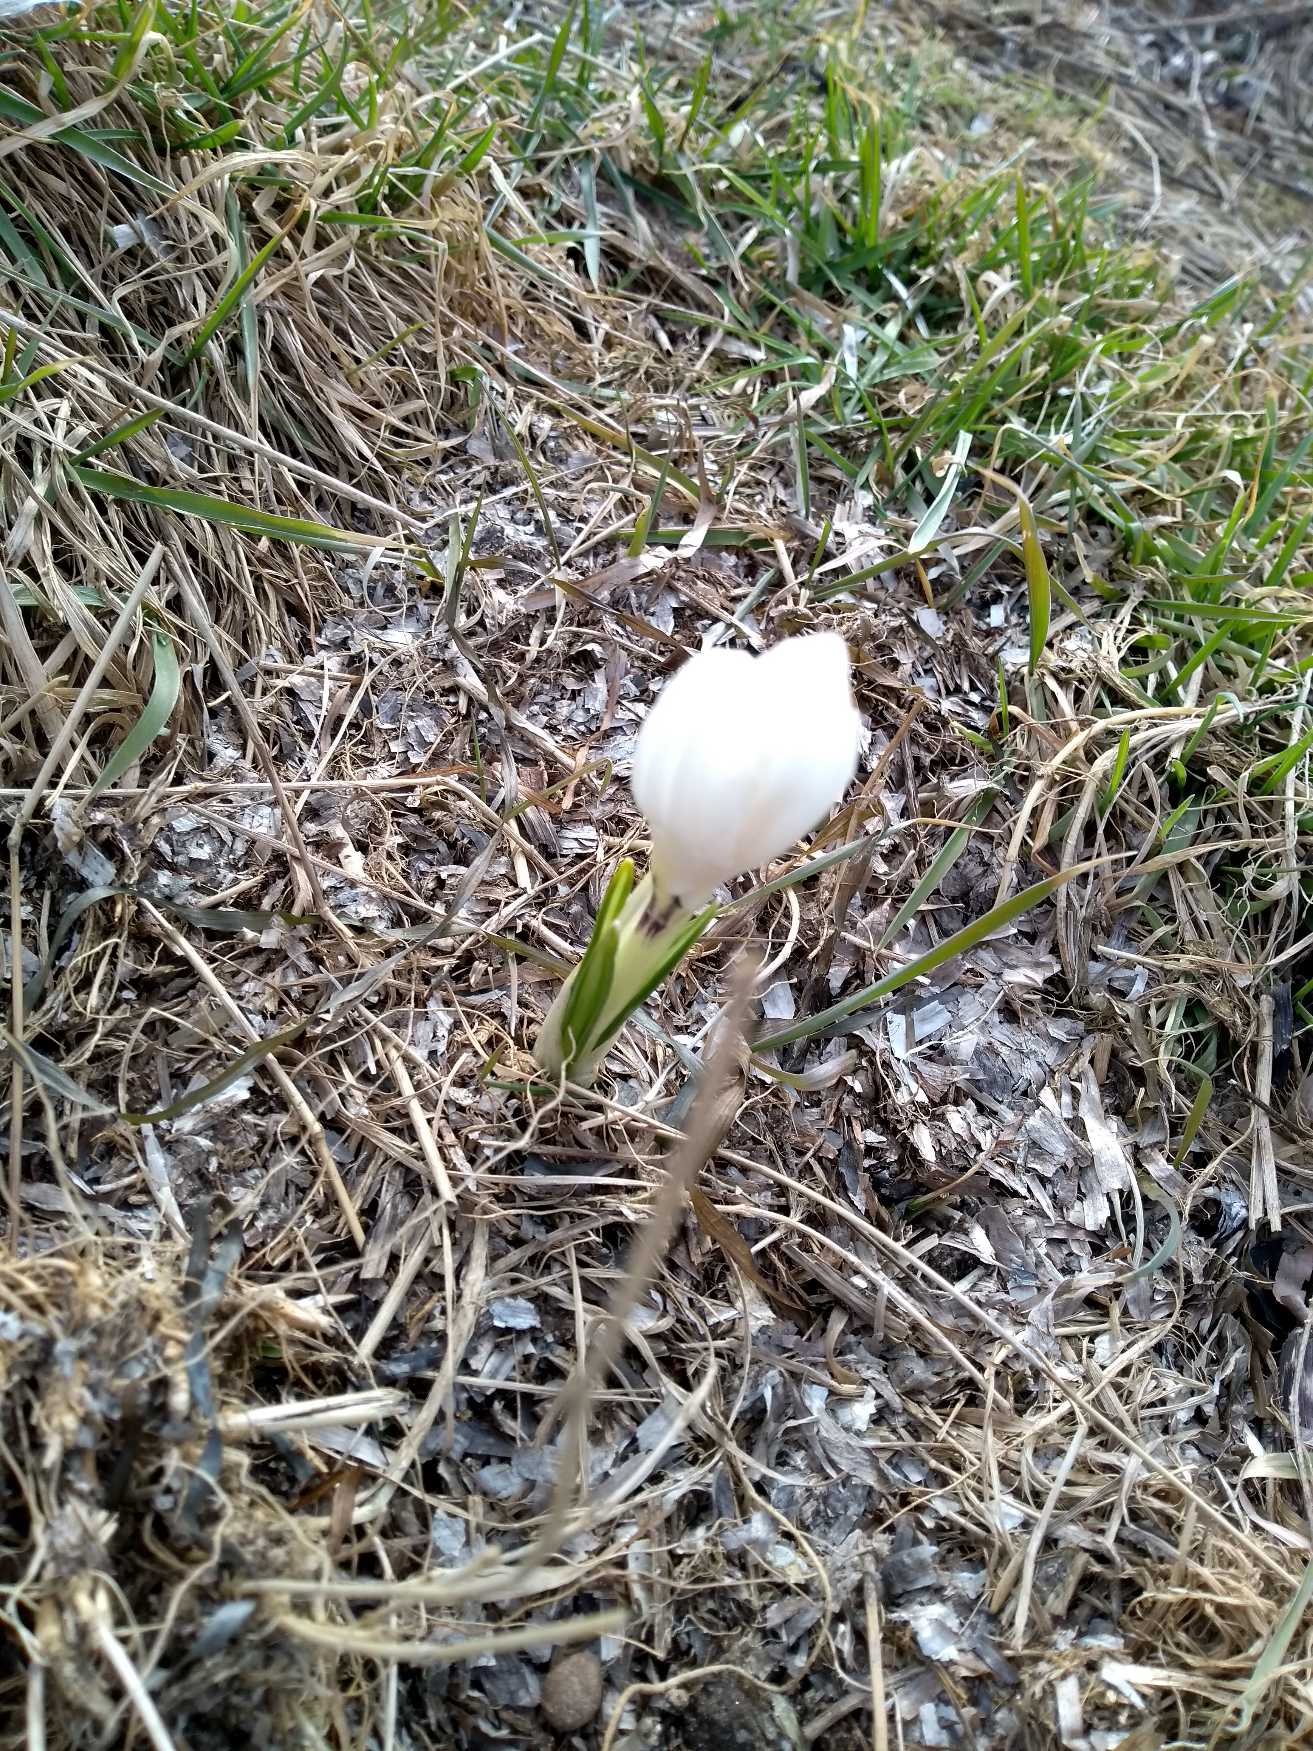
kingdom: Plantae
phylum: Tracheophyta
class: Liliopsida
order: Asparagales
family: Iridaceae
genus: Crocus
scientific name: Crocus vernus
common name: Vår-krokus
